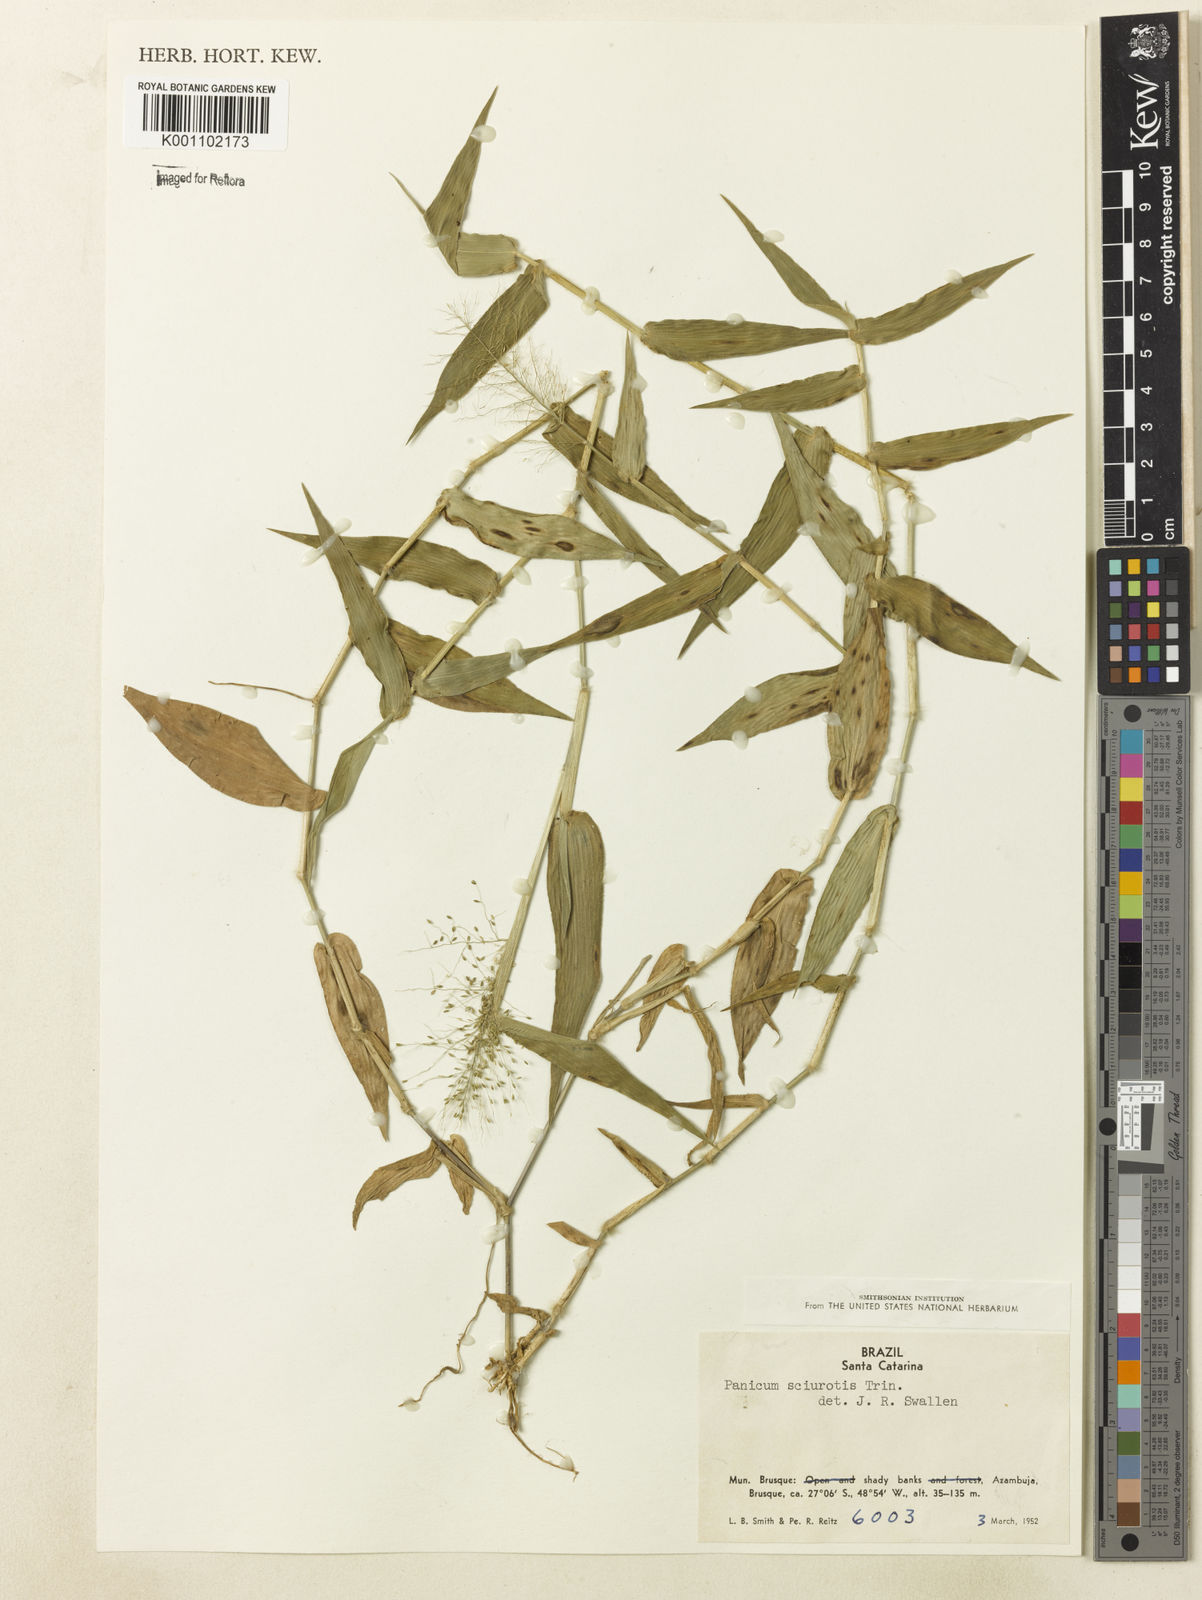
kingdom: Plantae
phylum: Tracheophyta
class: Liliopsida
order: Poales
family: Poaceae
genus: Dichanthelium
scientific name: Dichanthelium sciurotoides
